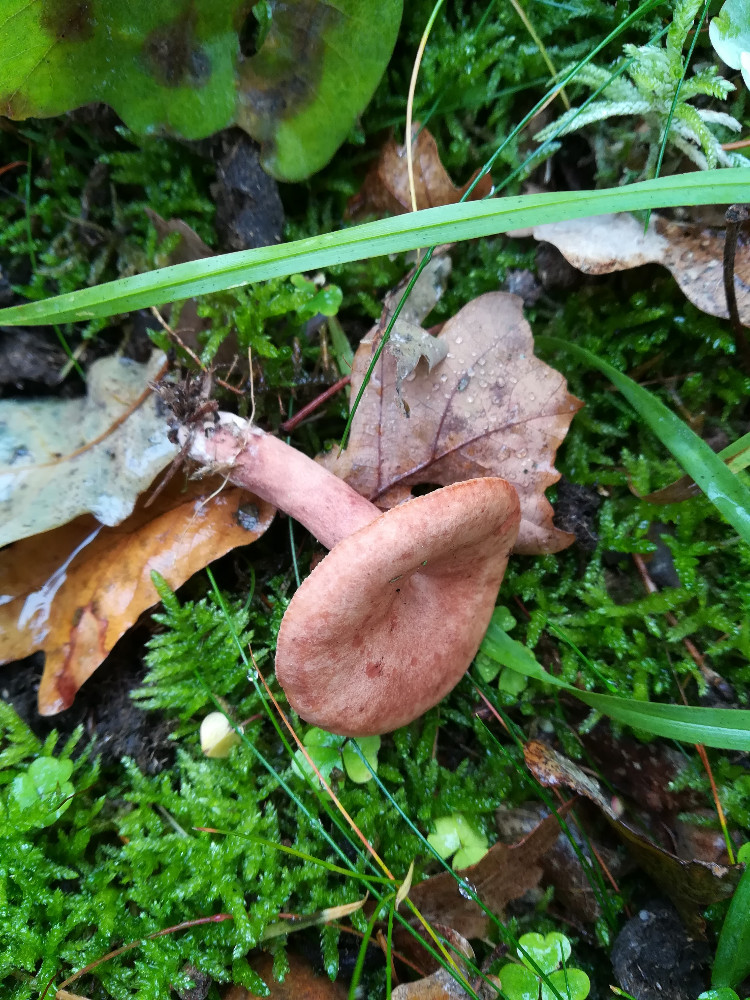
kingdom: Fungi
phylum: Basidiomycota
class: Agaricomycetes
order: Russulales
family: Russulaceae
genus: Lactarius
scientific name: Lactarius quietus
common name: ege-mælkehat
